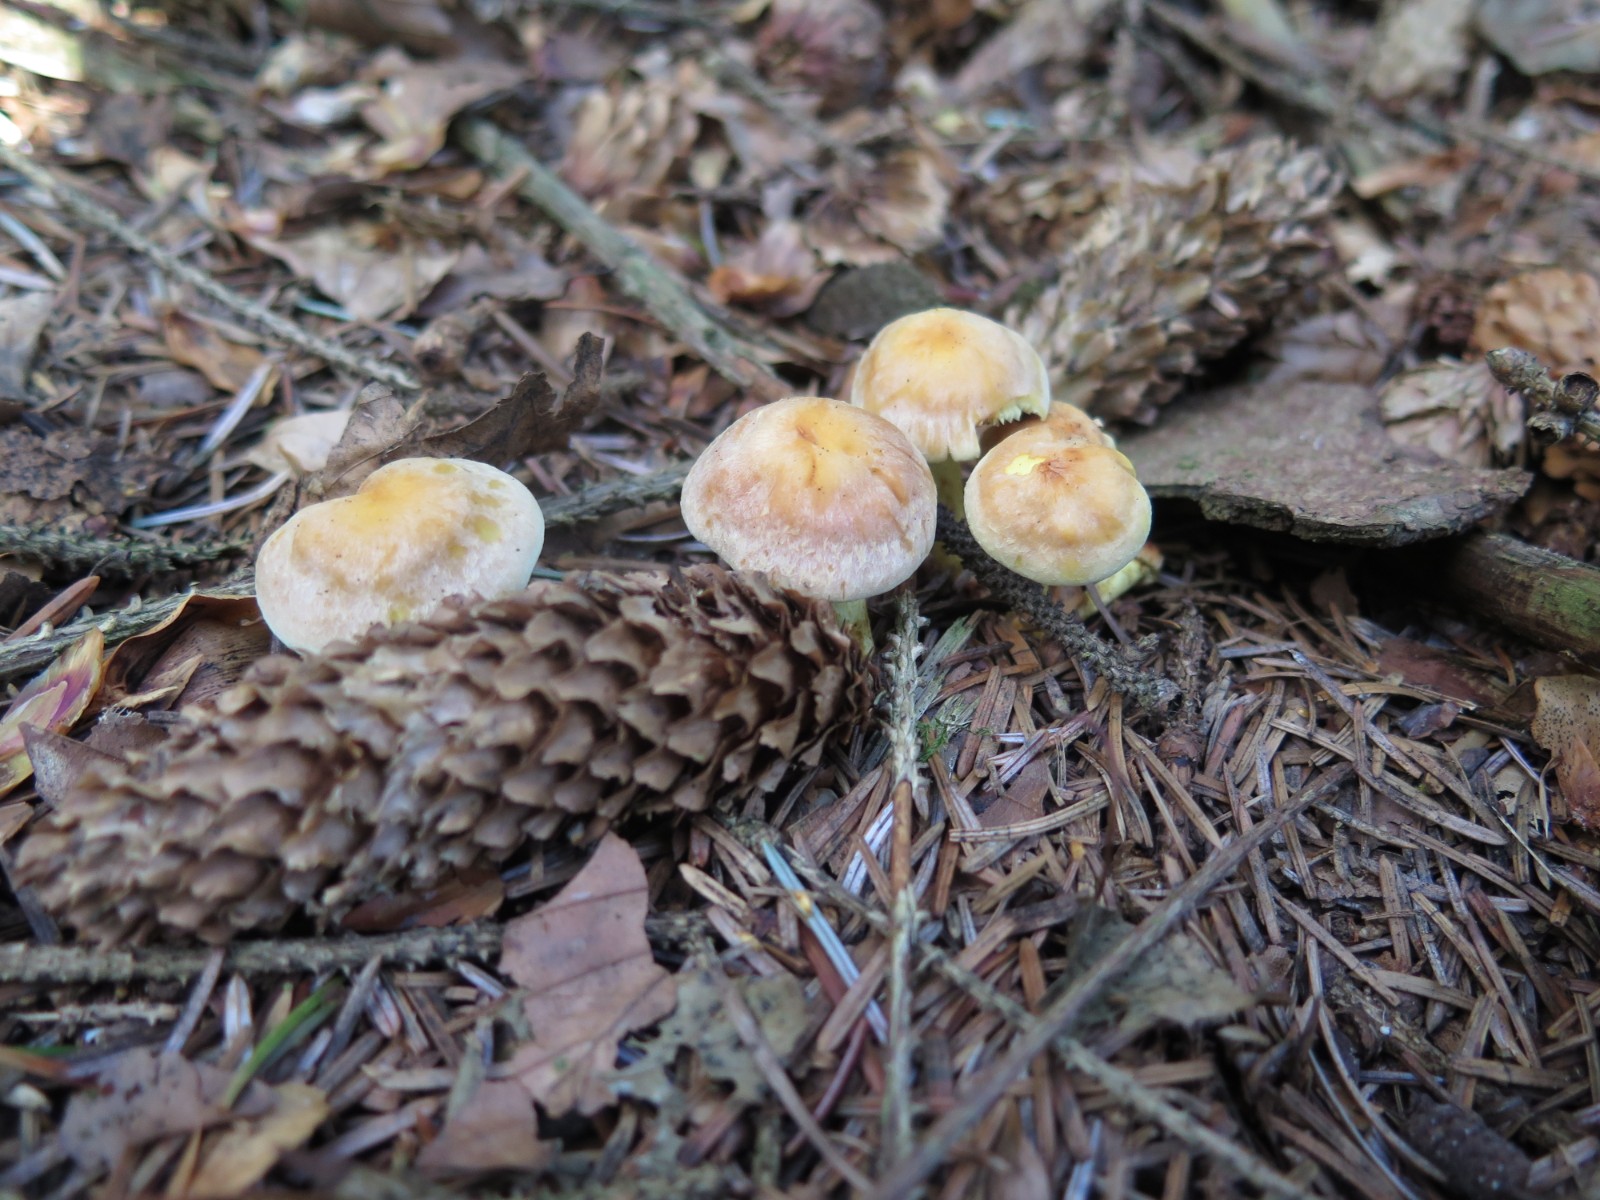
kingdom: Fungi
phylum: Basidiomycota
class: Agaricomycetes
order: Agaricales
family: Strophariaceae
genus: Hypholoma
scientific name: Hypholoma lateritium
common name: teglrød svovlhat
